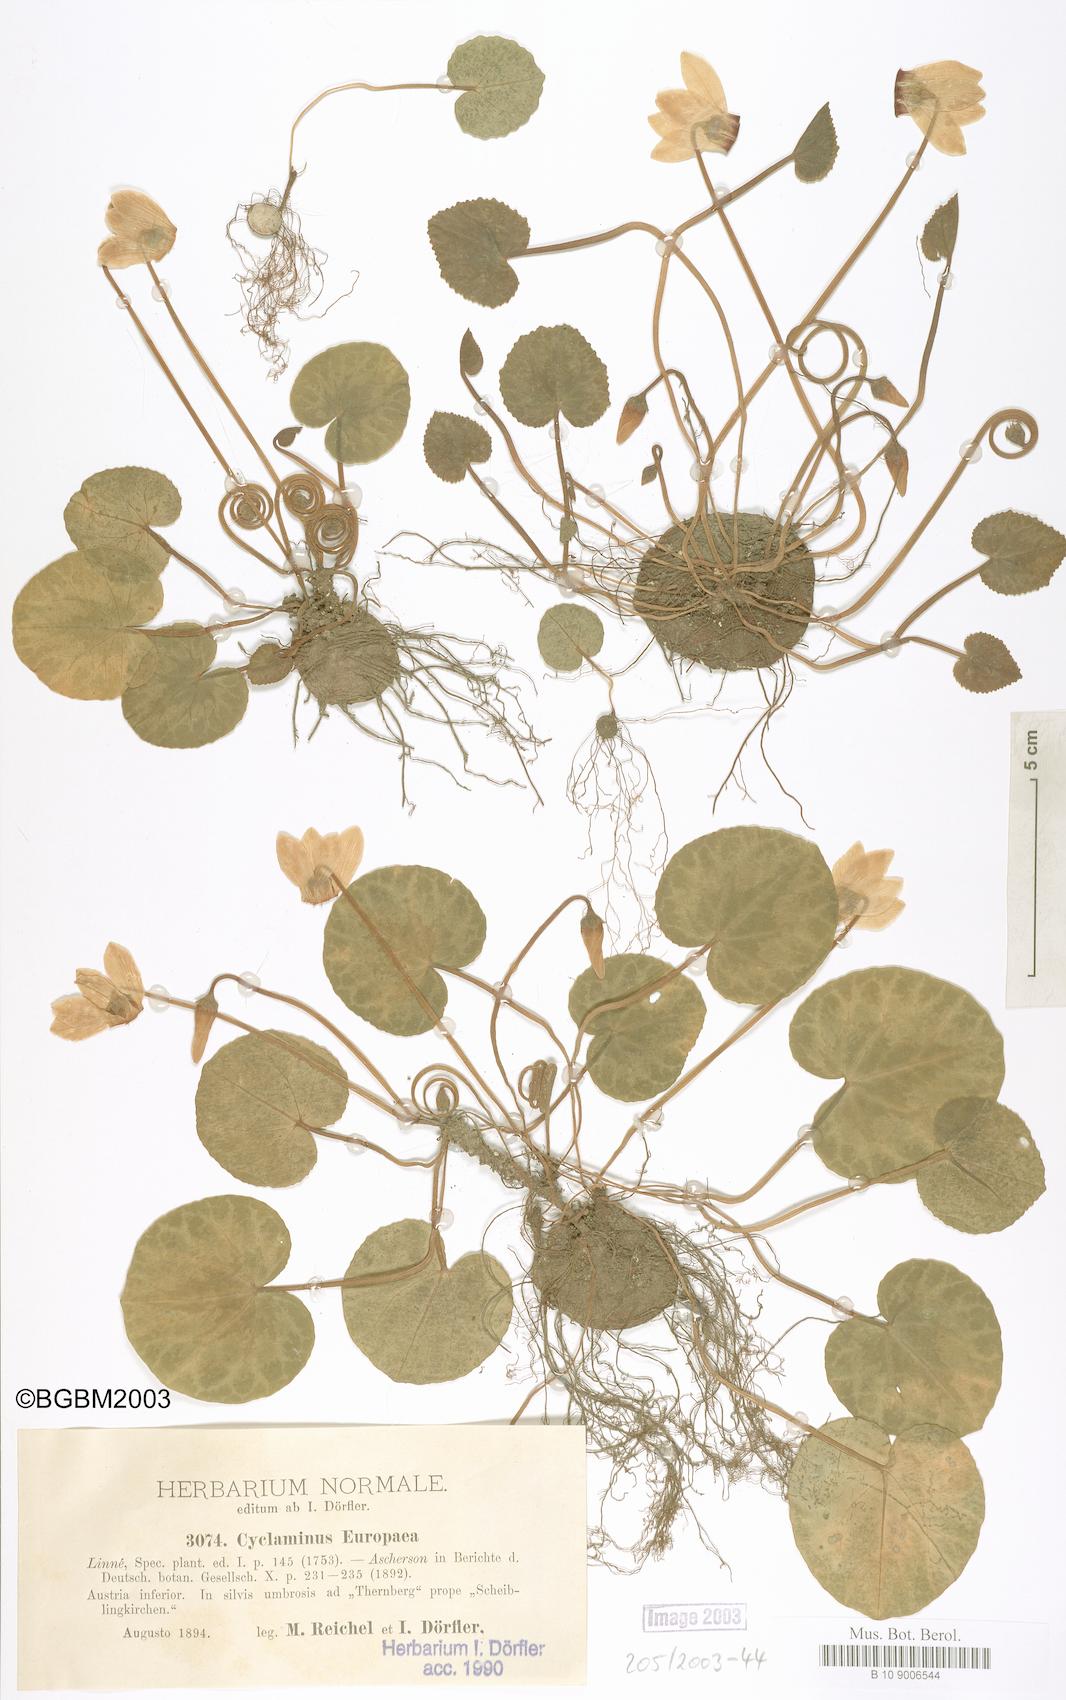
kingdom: Plantae
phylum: Tracheophyta
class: Magnoliopsida
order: Ericales
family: Primulaceae
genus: Cyclamen
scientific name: Cyclamen purpurascens
